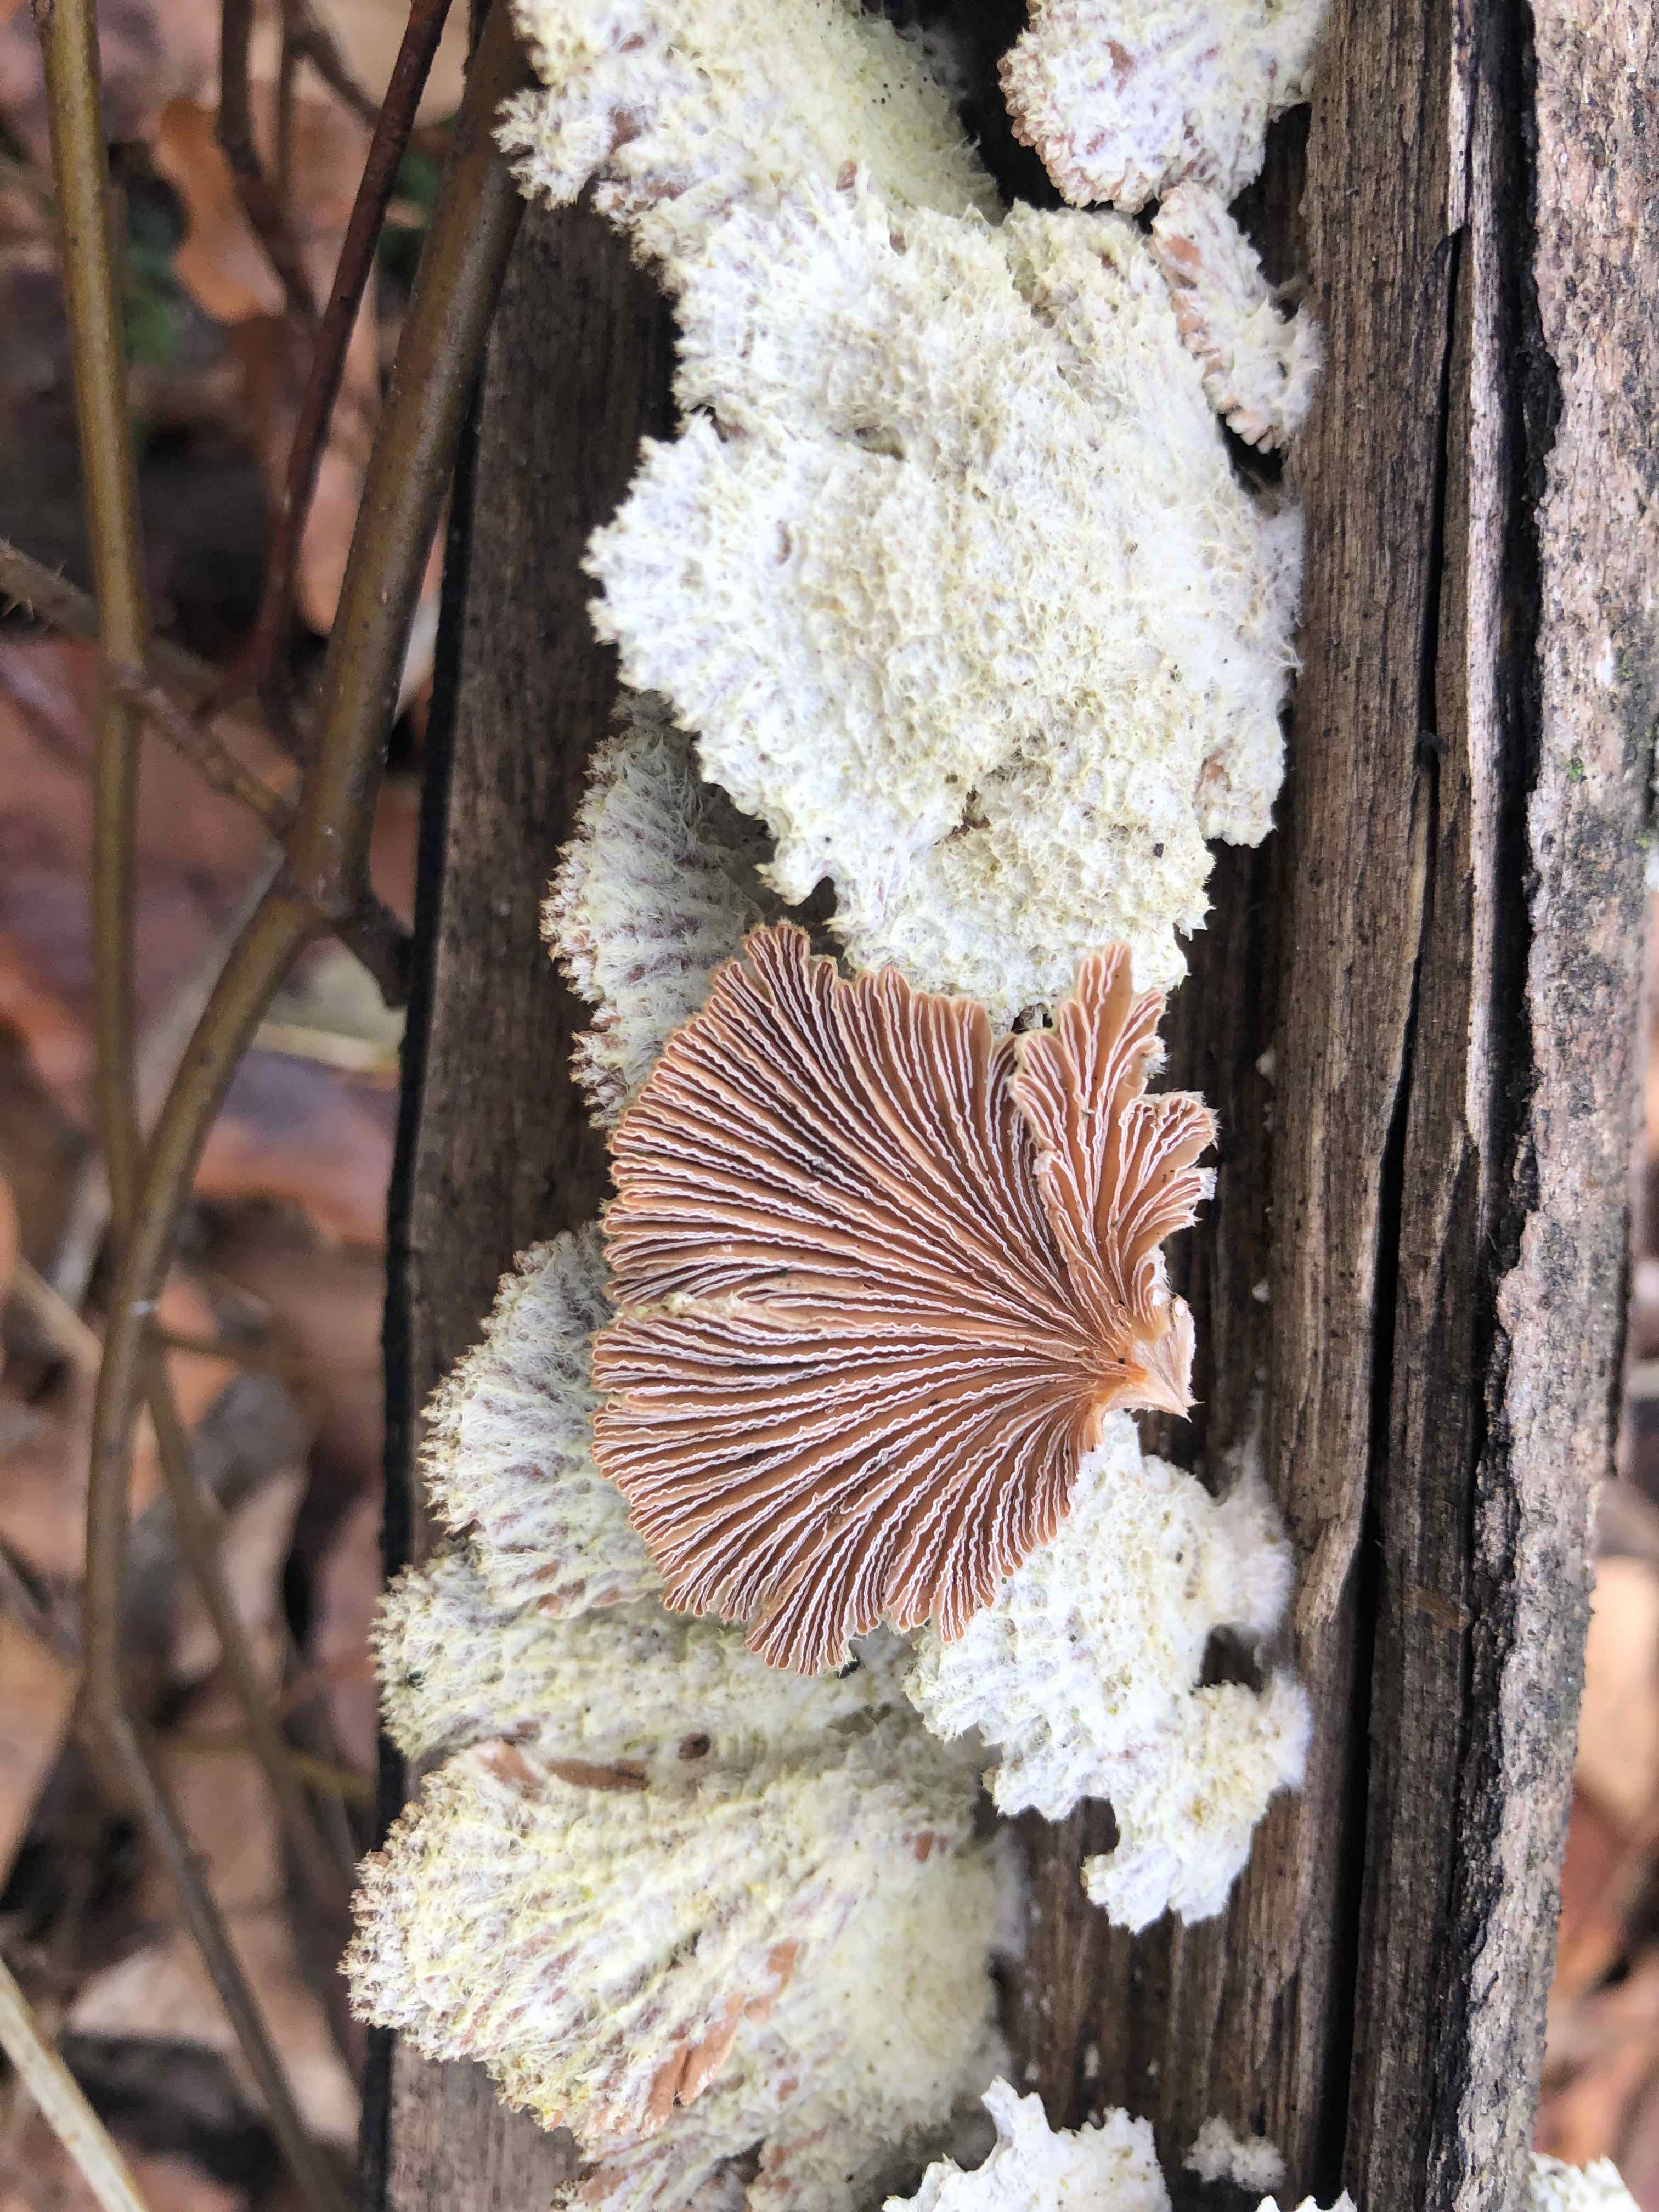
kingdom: Fungi
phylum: Basidiomycota
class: Agaricomycetes
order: Agaricales
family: Schizophyllaceae
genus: Schizophyllum
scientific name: Schizophyllum commune
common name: kløvblad
